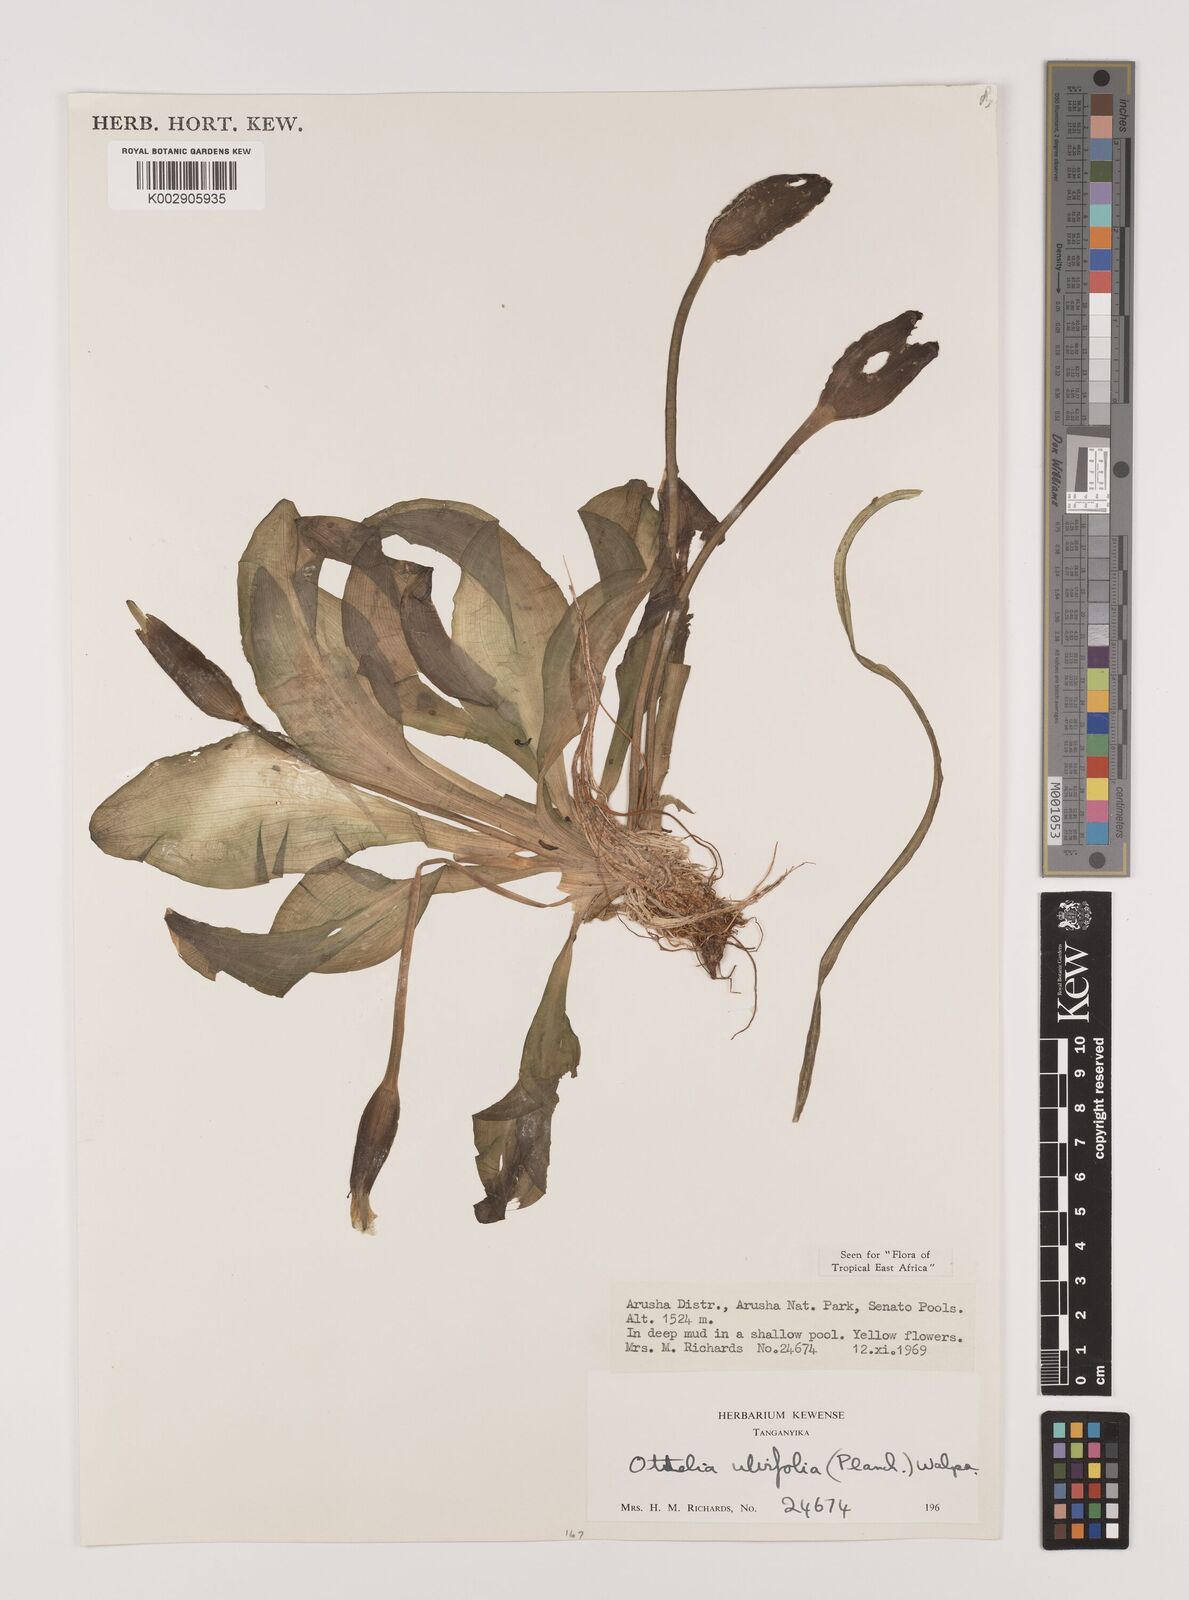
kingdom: Plantae
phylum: Tracheophyta
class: Liliopsida
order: Alismatales
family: Hydrocharitaceae
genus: Ottelia
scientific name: Ottelia ulvifolia
